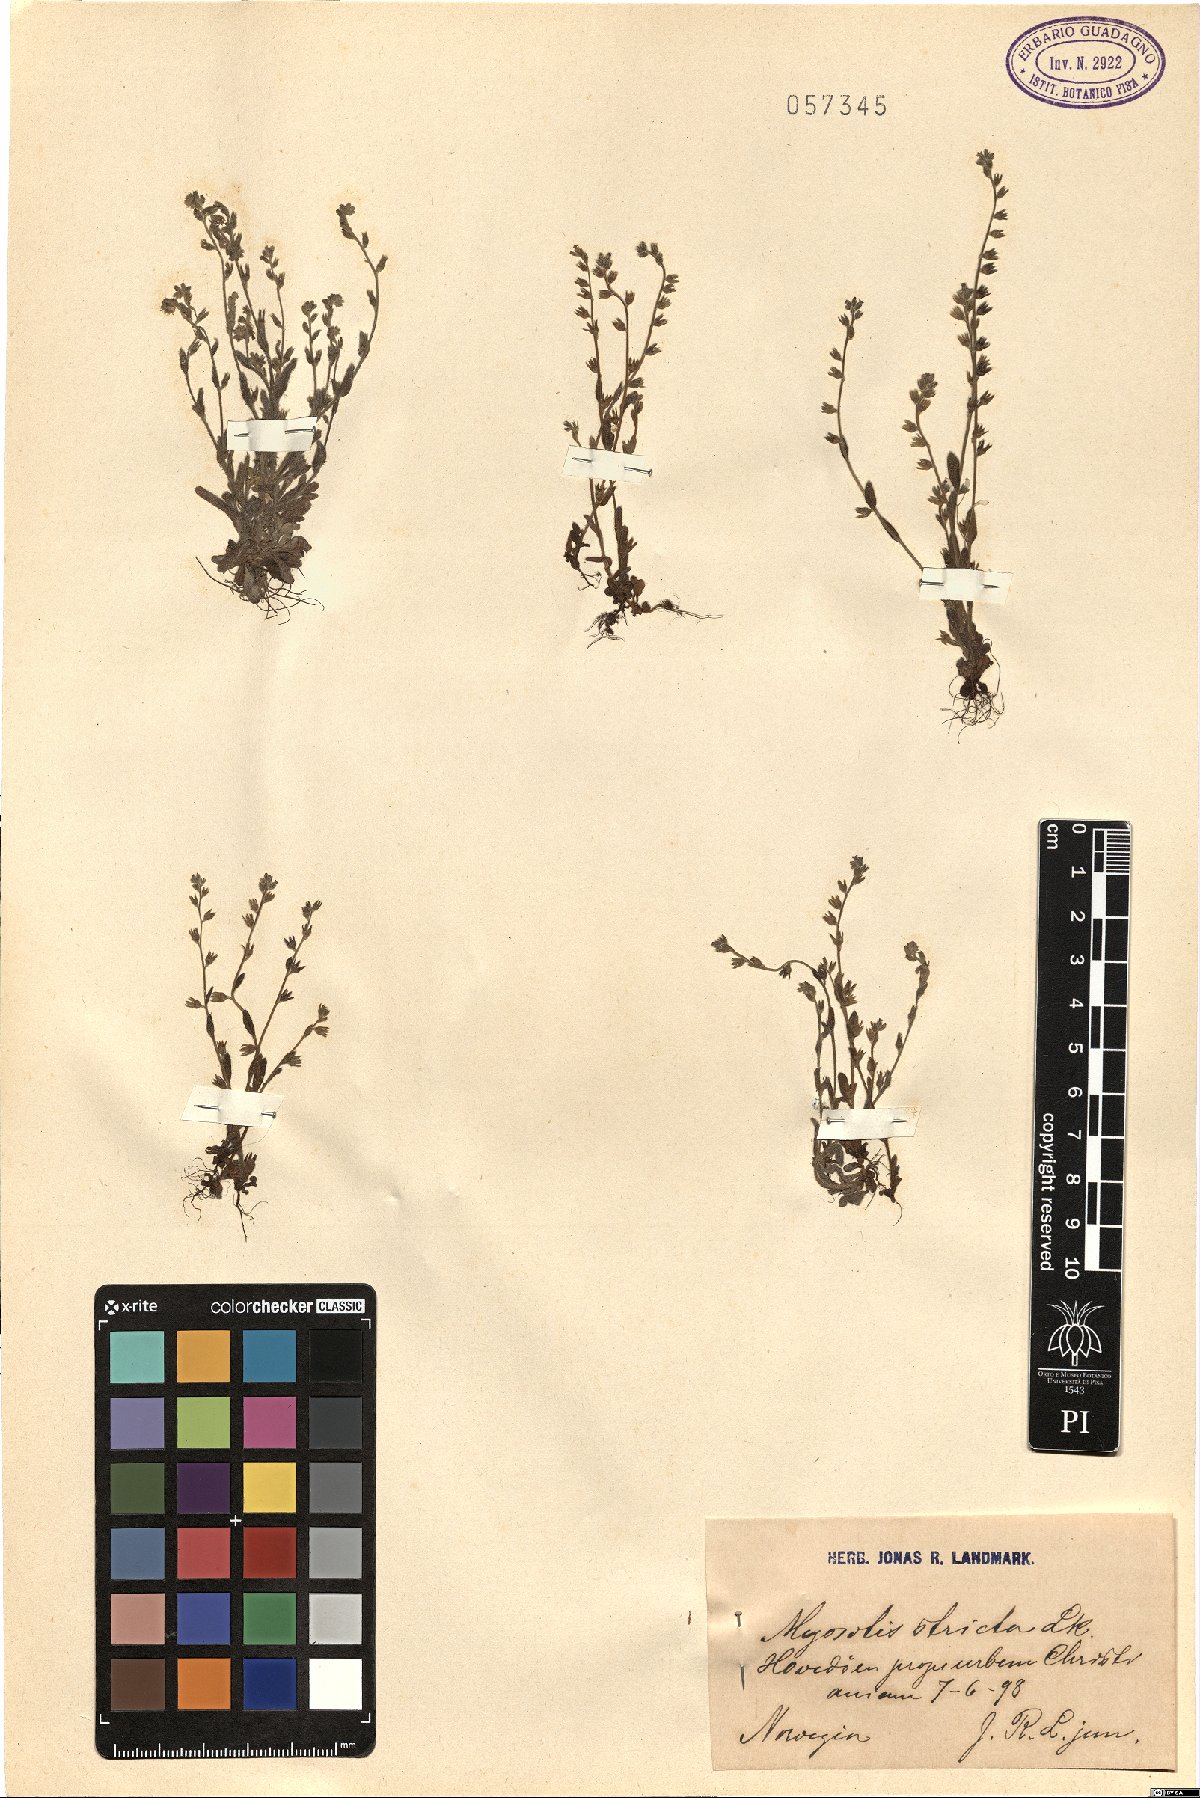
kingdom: Plantae
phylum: Tracheophyta
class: Magnoliopsida
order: Boraginales
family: Boraginaceae
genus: Myosotis
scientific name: Myosotis stricta
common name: Strict forget-me-not
